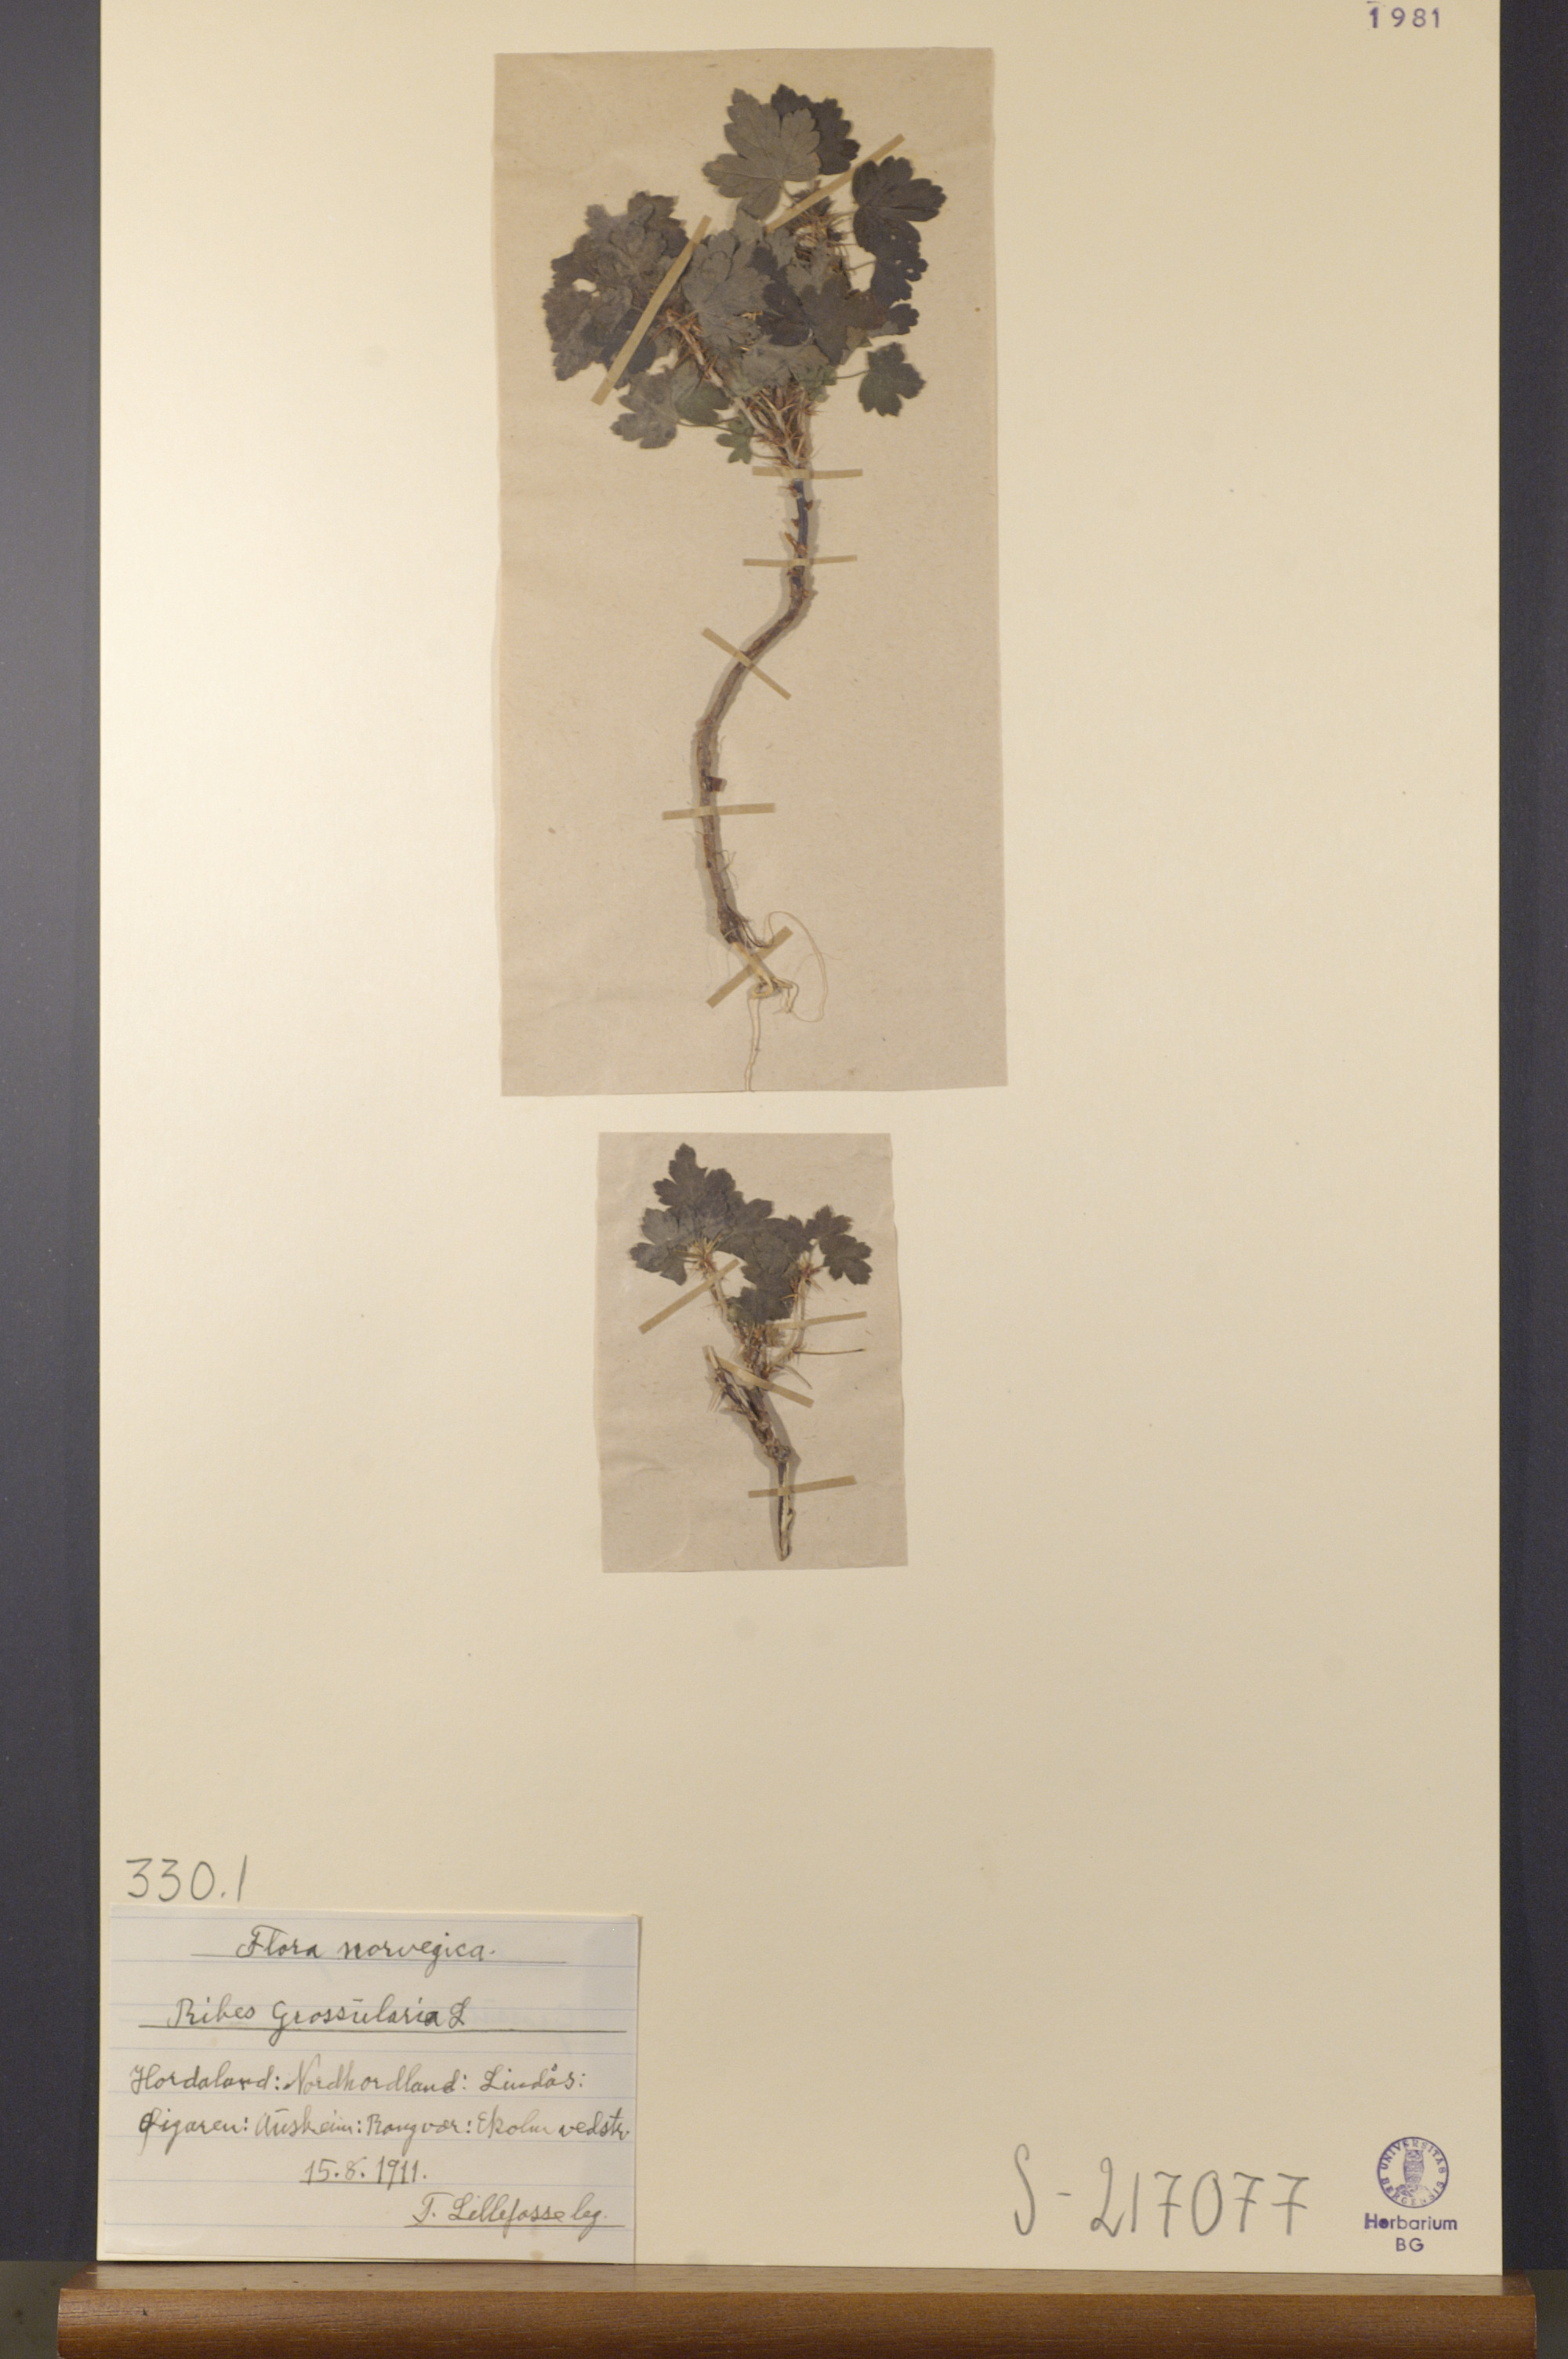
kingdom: Plantae
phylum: Tracheophyta
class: Magnoliopsida
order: Saxifragales
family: Grossulariaceae
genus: Ribes
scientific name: Ribes uva-crispa
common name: Gooseberry
